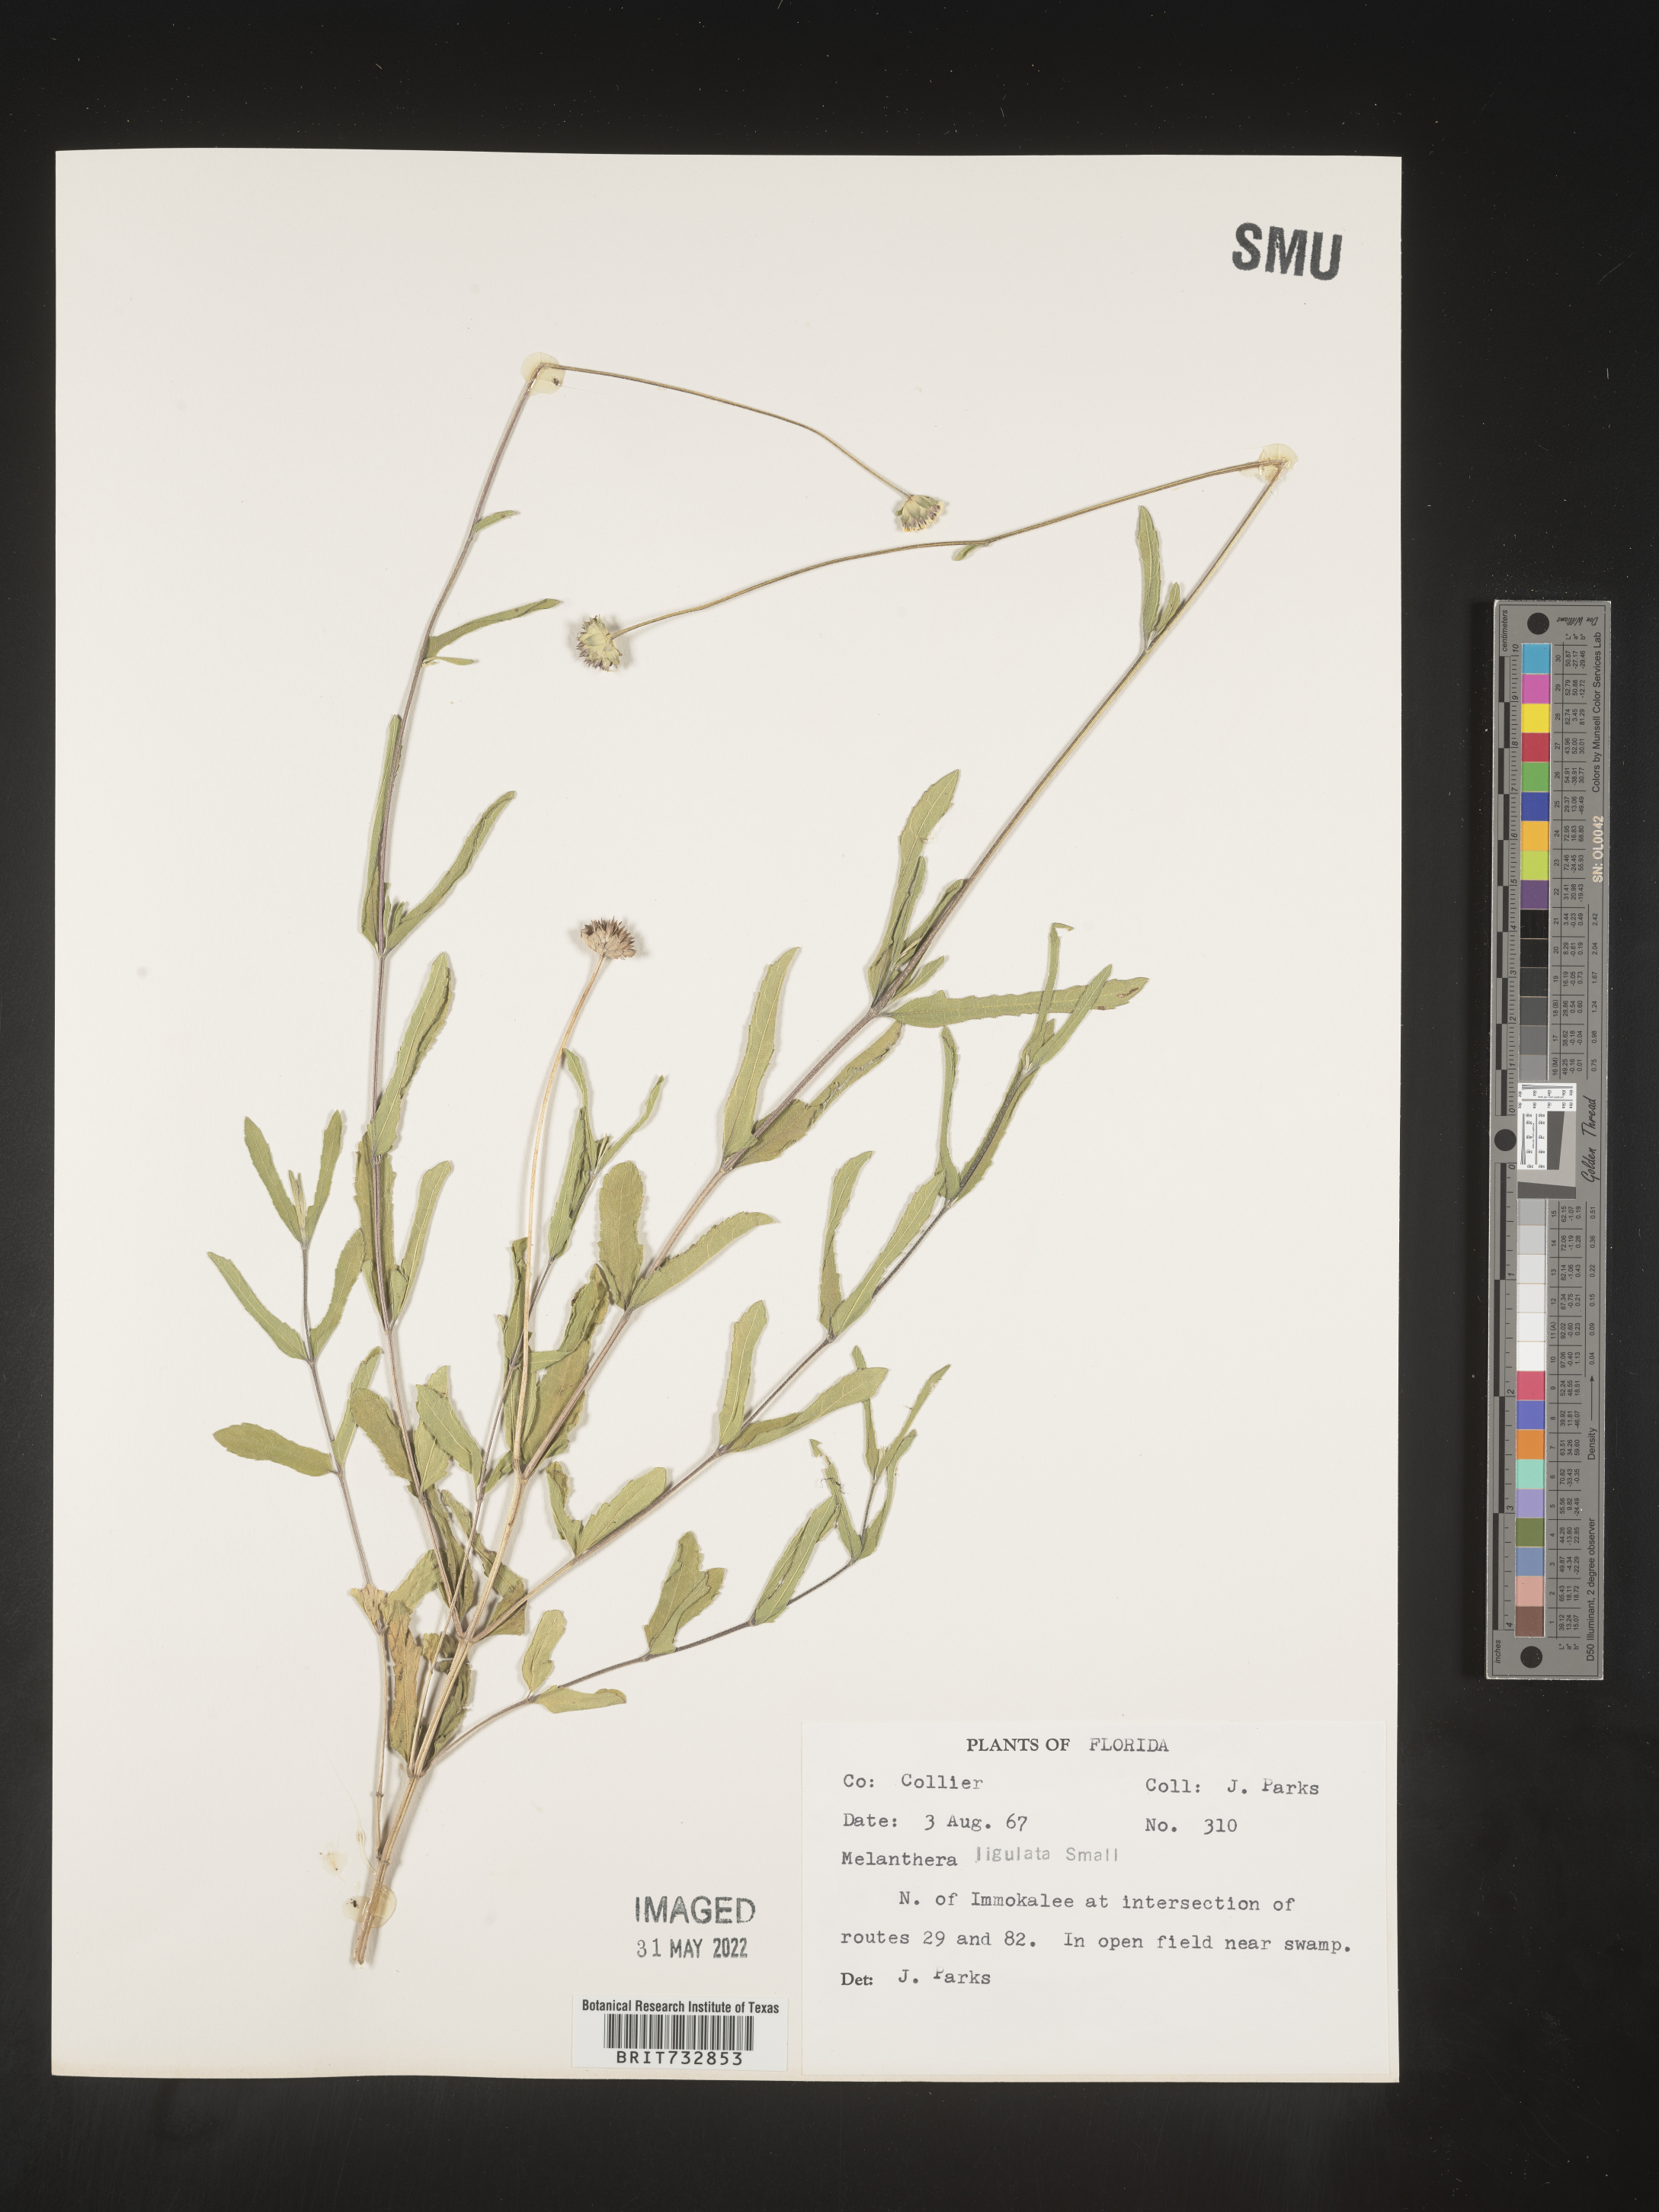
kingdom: Plantae
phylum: Tracheophyta
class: Magnoliopsida
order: Asterales
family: Asteraceae
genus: Melanthera
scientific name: Melanthera nivea
